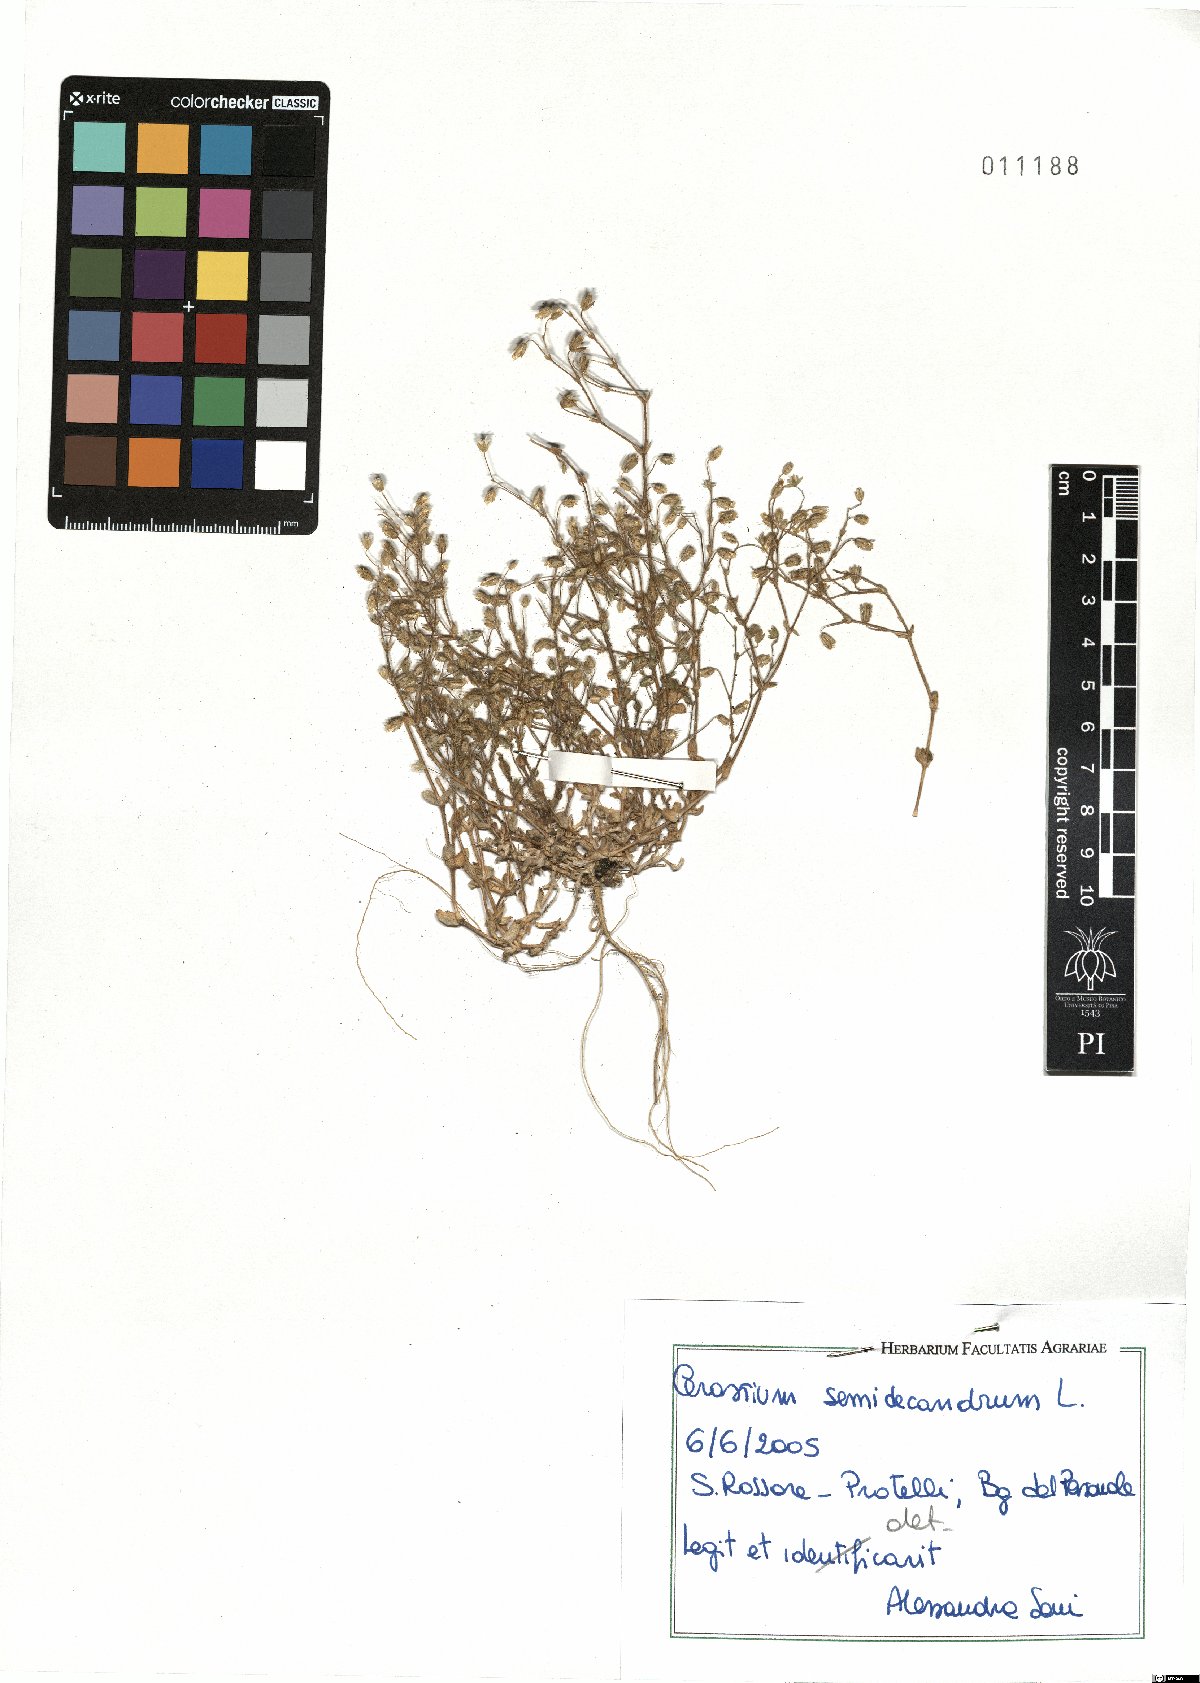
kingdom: Plantae
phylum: Tracheophyta
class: Magnoliopsida
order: Caryophyllales
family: Caryophyllaceae
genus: Cerastium
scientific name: Cerastium semidecandrum
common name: Little mouse-ear
